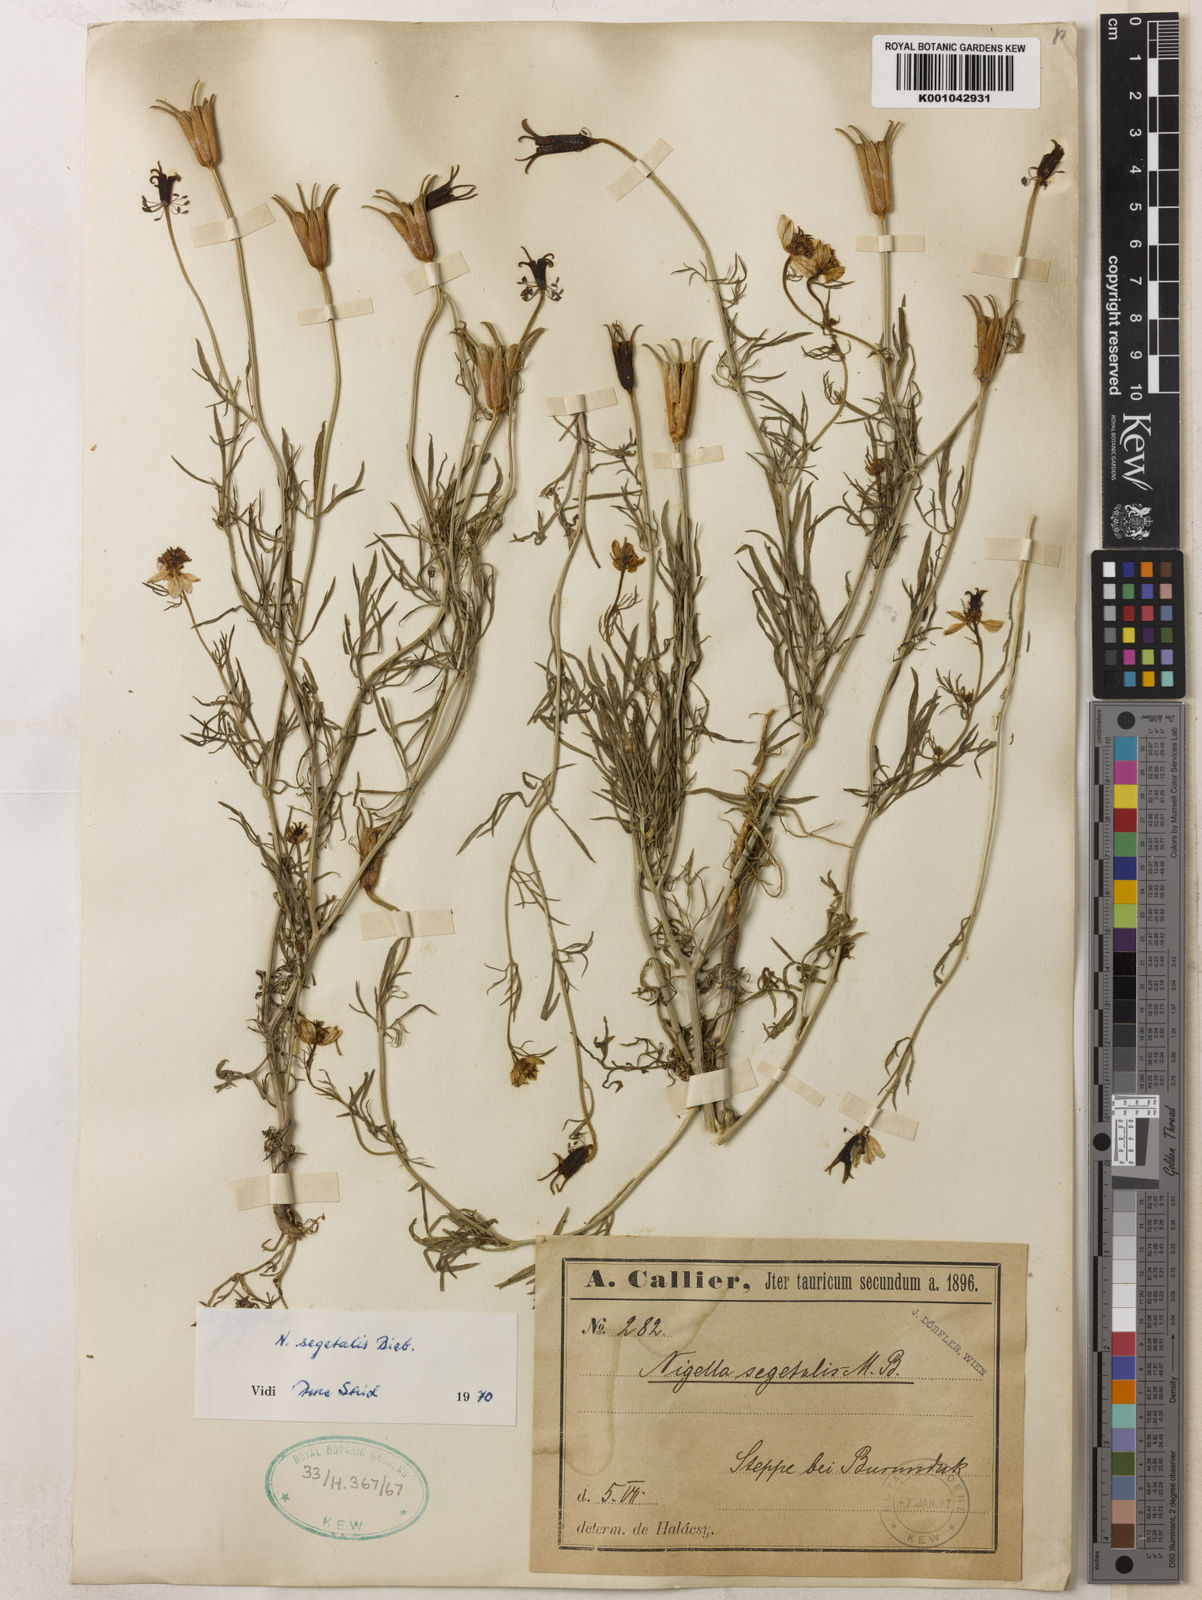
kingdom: Plantae
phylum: Tracheophyta
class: Magnoliopsida
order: Ranunculales
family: Ranunculaceae
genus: Nigella
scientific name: Nigella segetalis
